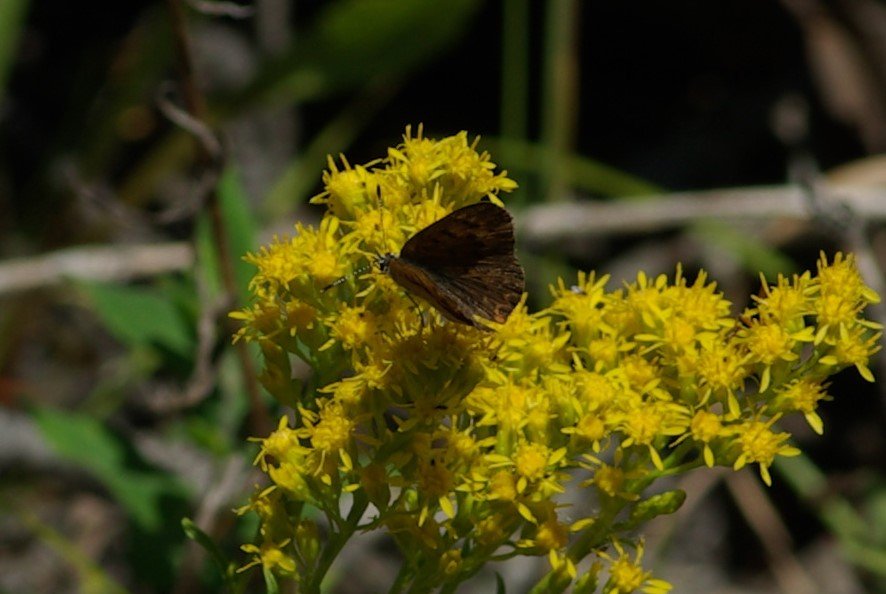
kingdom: Animalia
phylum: Arthropoda
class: Insecta
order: Lepidoptera
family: Lycaenidae
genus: Epidemia
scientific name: Epidemia dorcas
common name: Dorcas Copper
